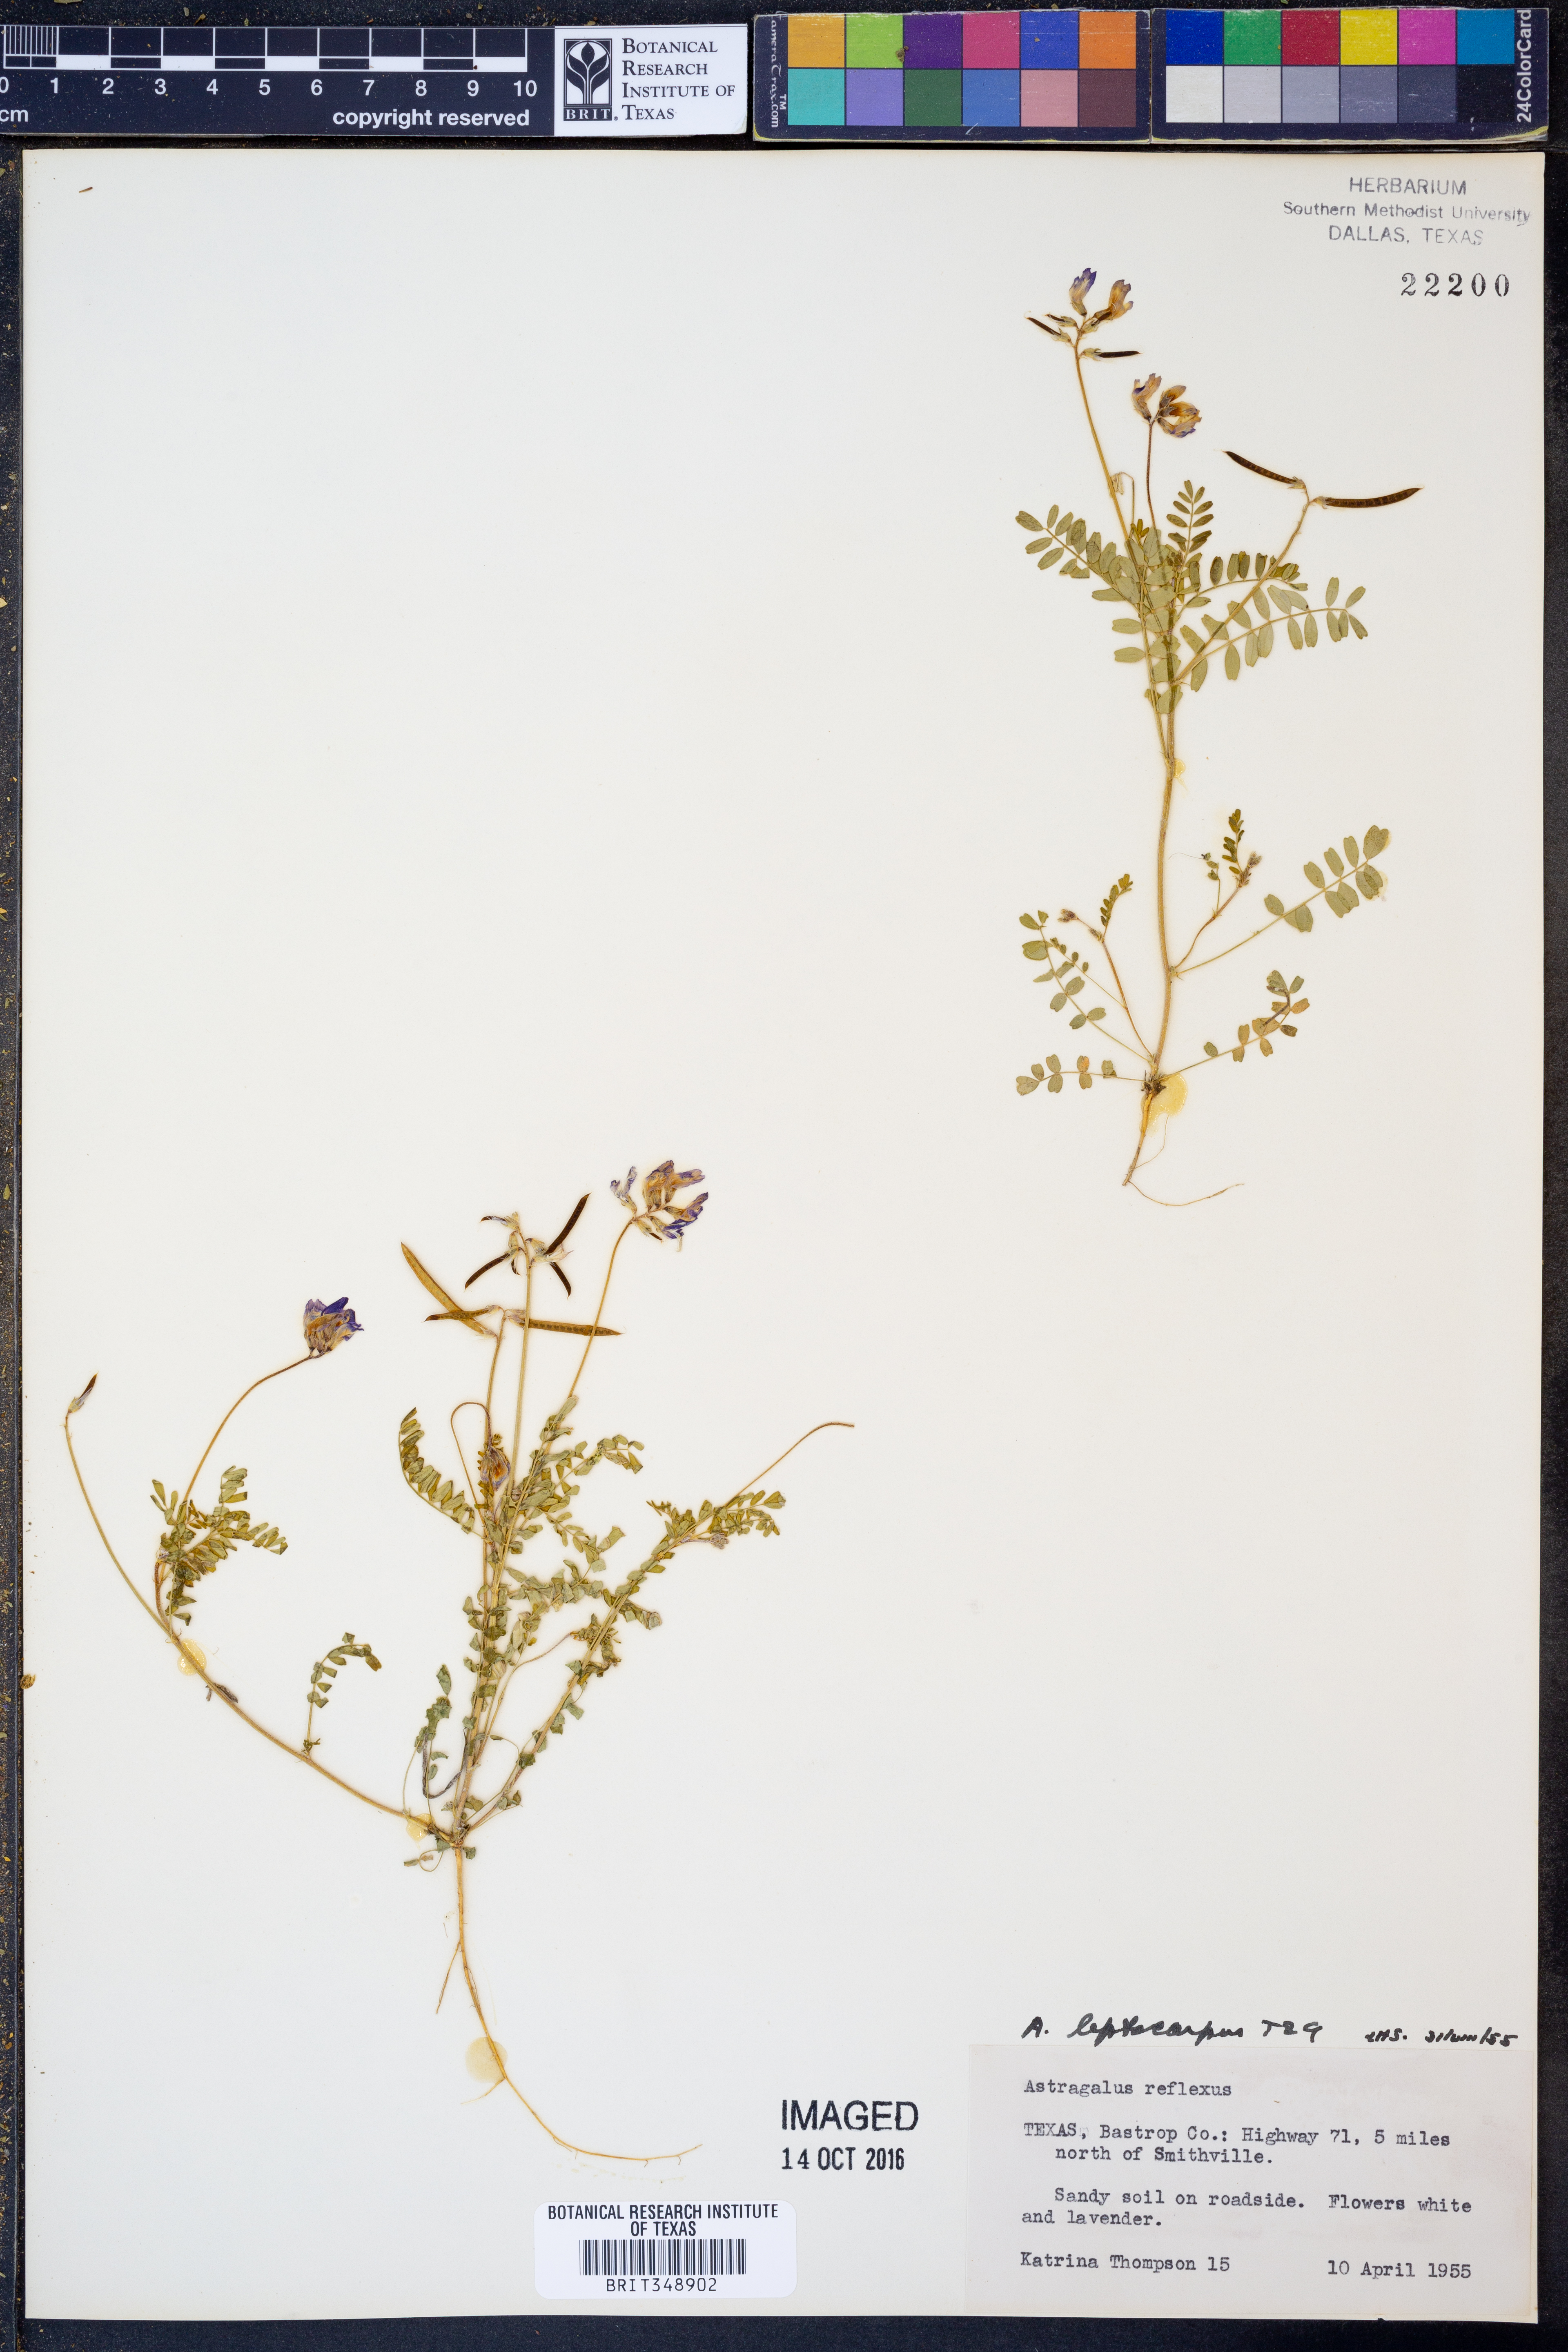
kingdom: Plantae
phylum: Tracheophyta
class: Magnoliopsida
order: Fabales
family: Fabaceae
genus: Astragalus
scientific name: Astragalus leptocarpus
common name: Bodkin milk-vetch
